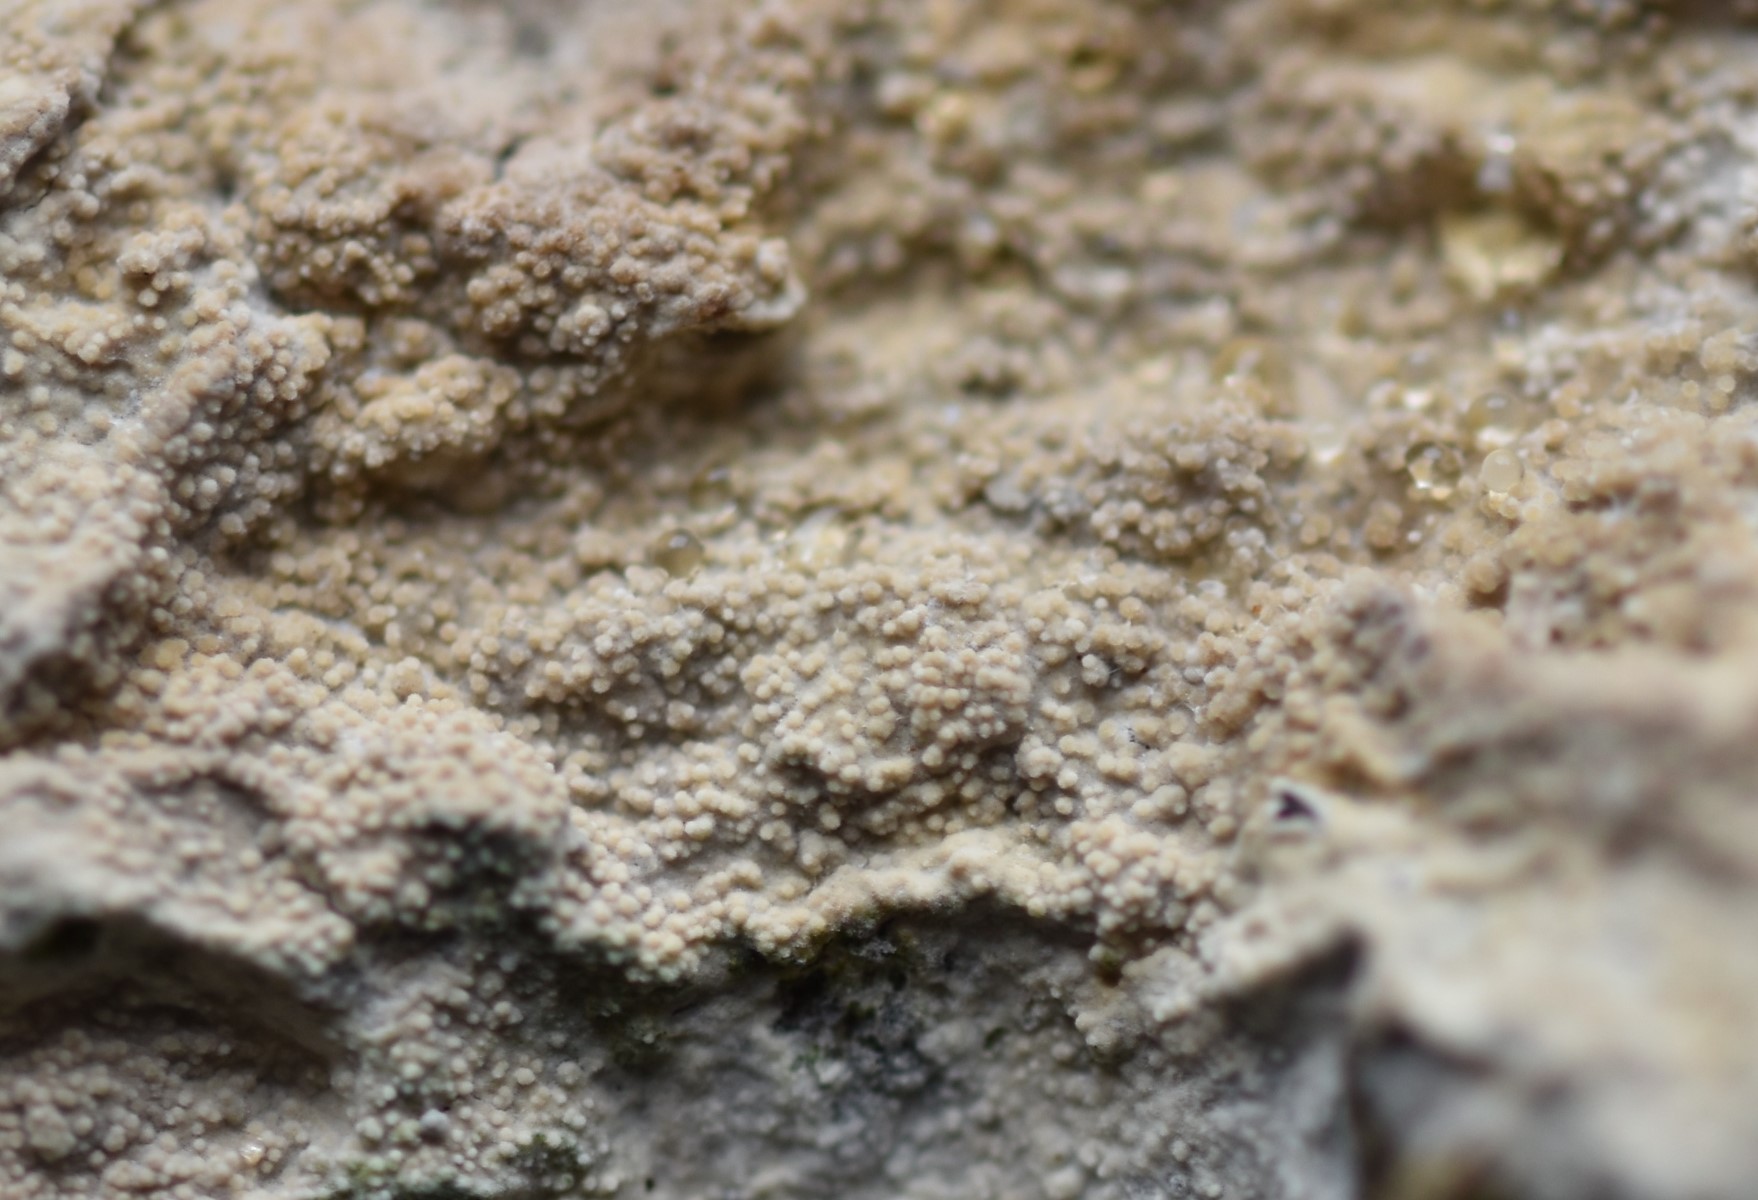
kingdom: Fungi
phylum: Basidiomycota
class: Agaricomycetes
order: Hymenochaetales
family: Hyphodontiaceae
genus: Hyphodontia
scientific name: Hyphodontia arguta
